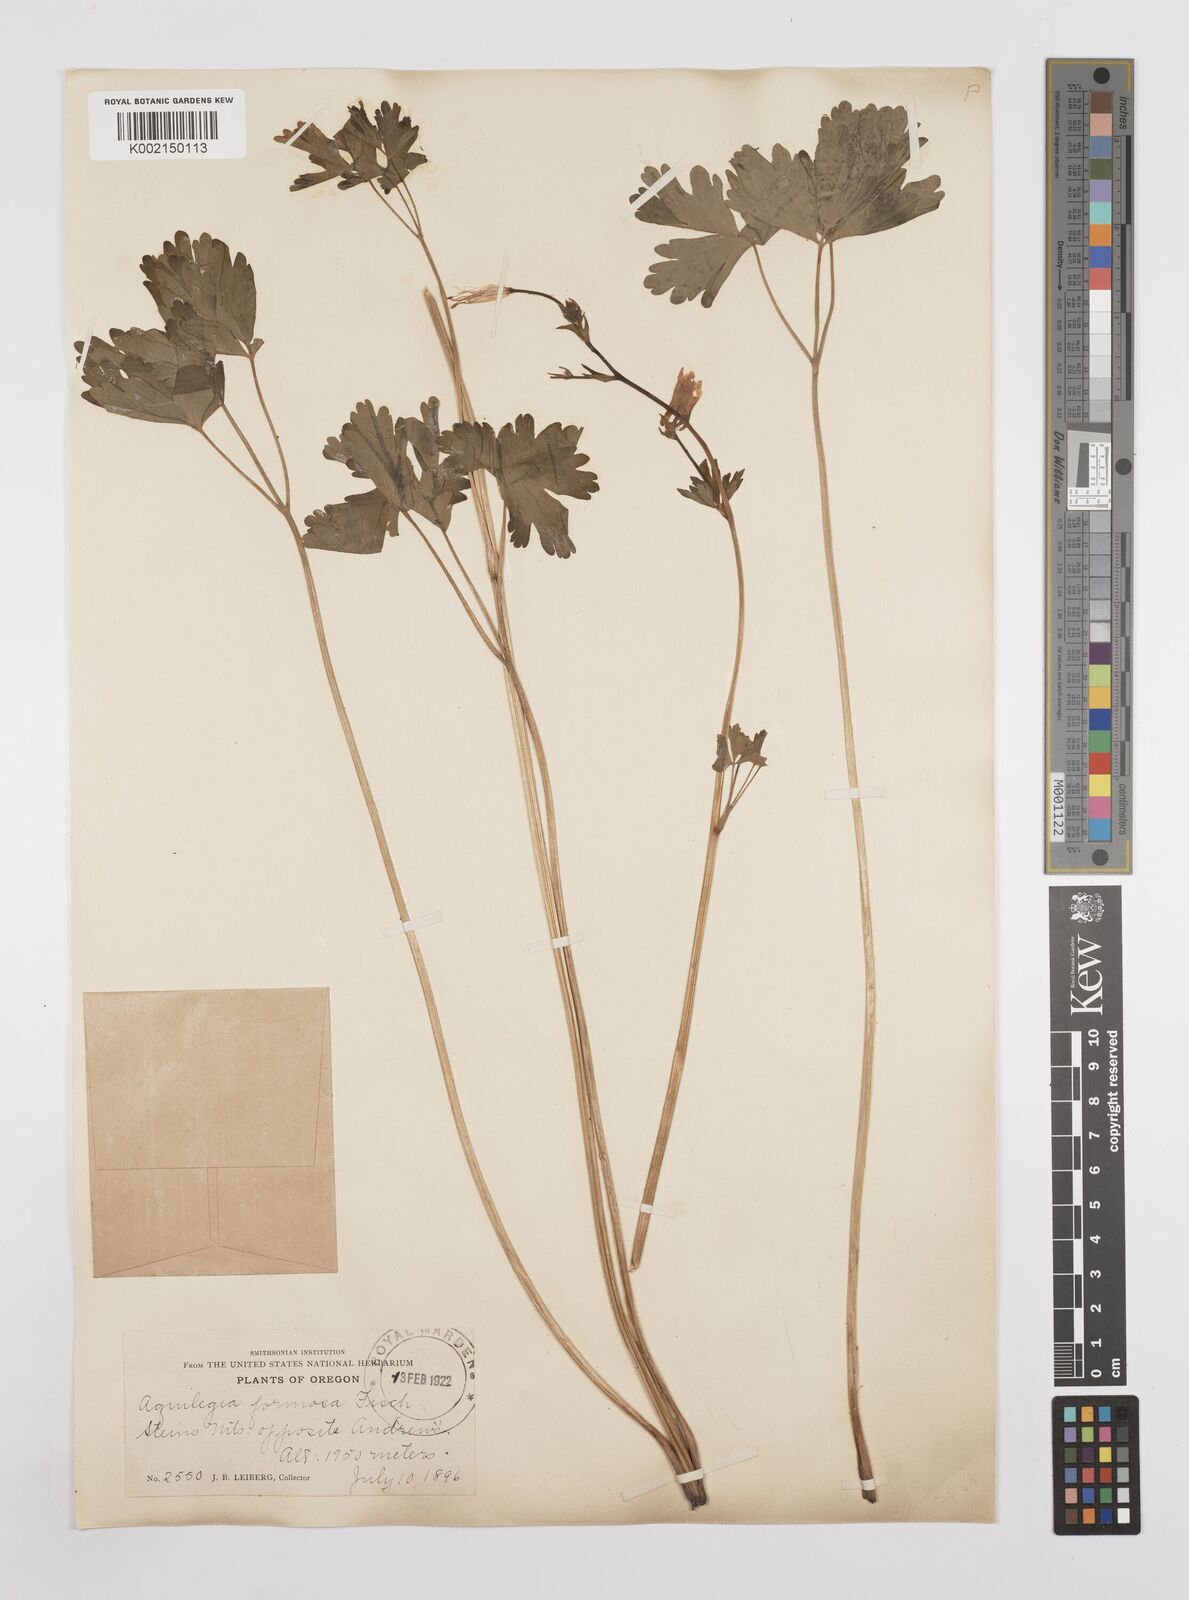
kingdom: Plantae
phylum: Tracheophyta
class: Magnoliopsida
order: Ranunculales
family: Ranunculaceae
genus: Aquilegia
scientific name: Aquilegia
